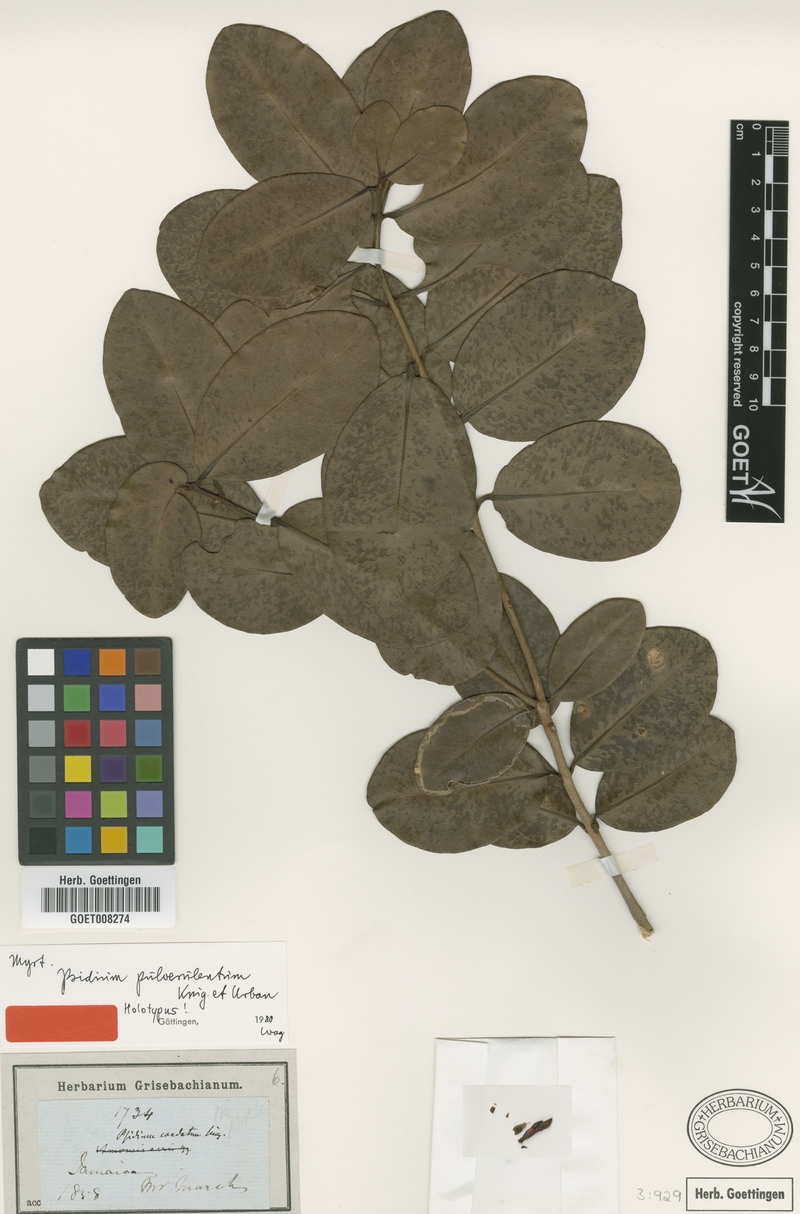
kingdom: Plantae
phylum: Tracheophyta
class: Magnoliopsida
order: Myrtales
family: Myrtaceae
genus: Psidium
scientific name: Psidium pulverulentum
